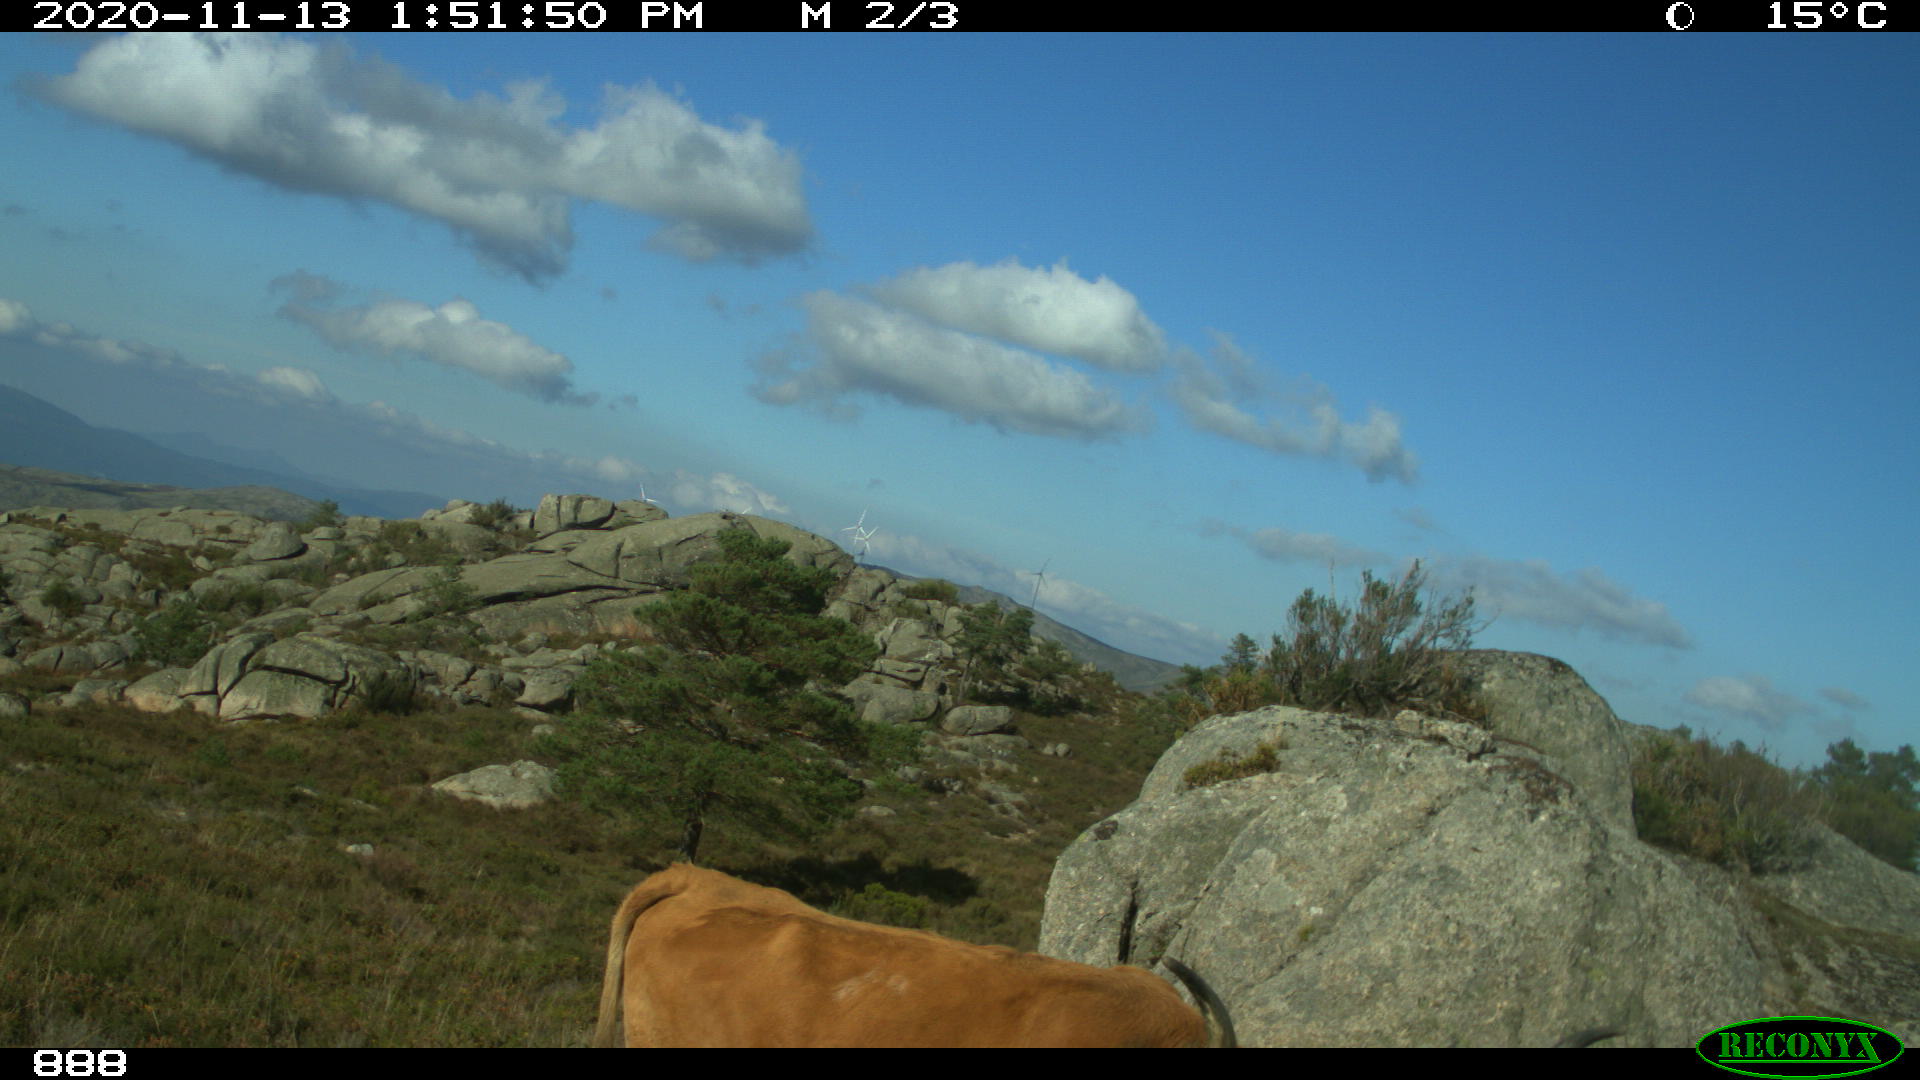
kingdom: Animalia
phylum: Chordata
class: Mammalia
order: Artiodactyla
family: Bovidae
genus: Bos
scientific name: Bos taurus
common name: Domesticated cattle
